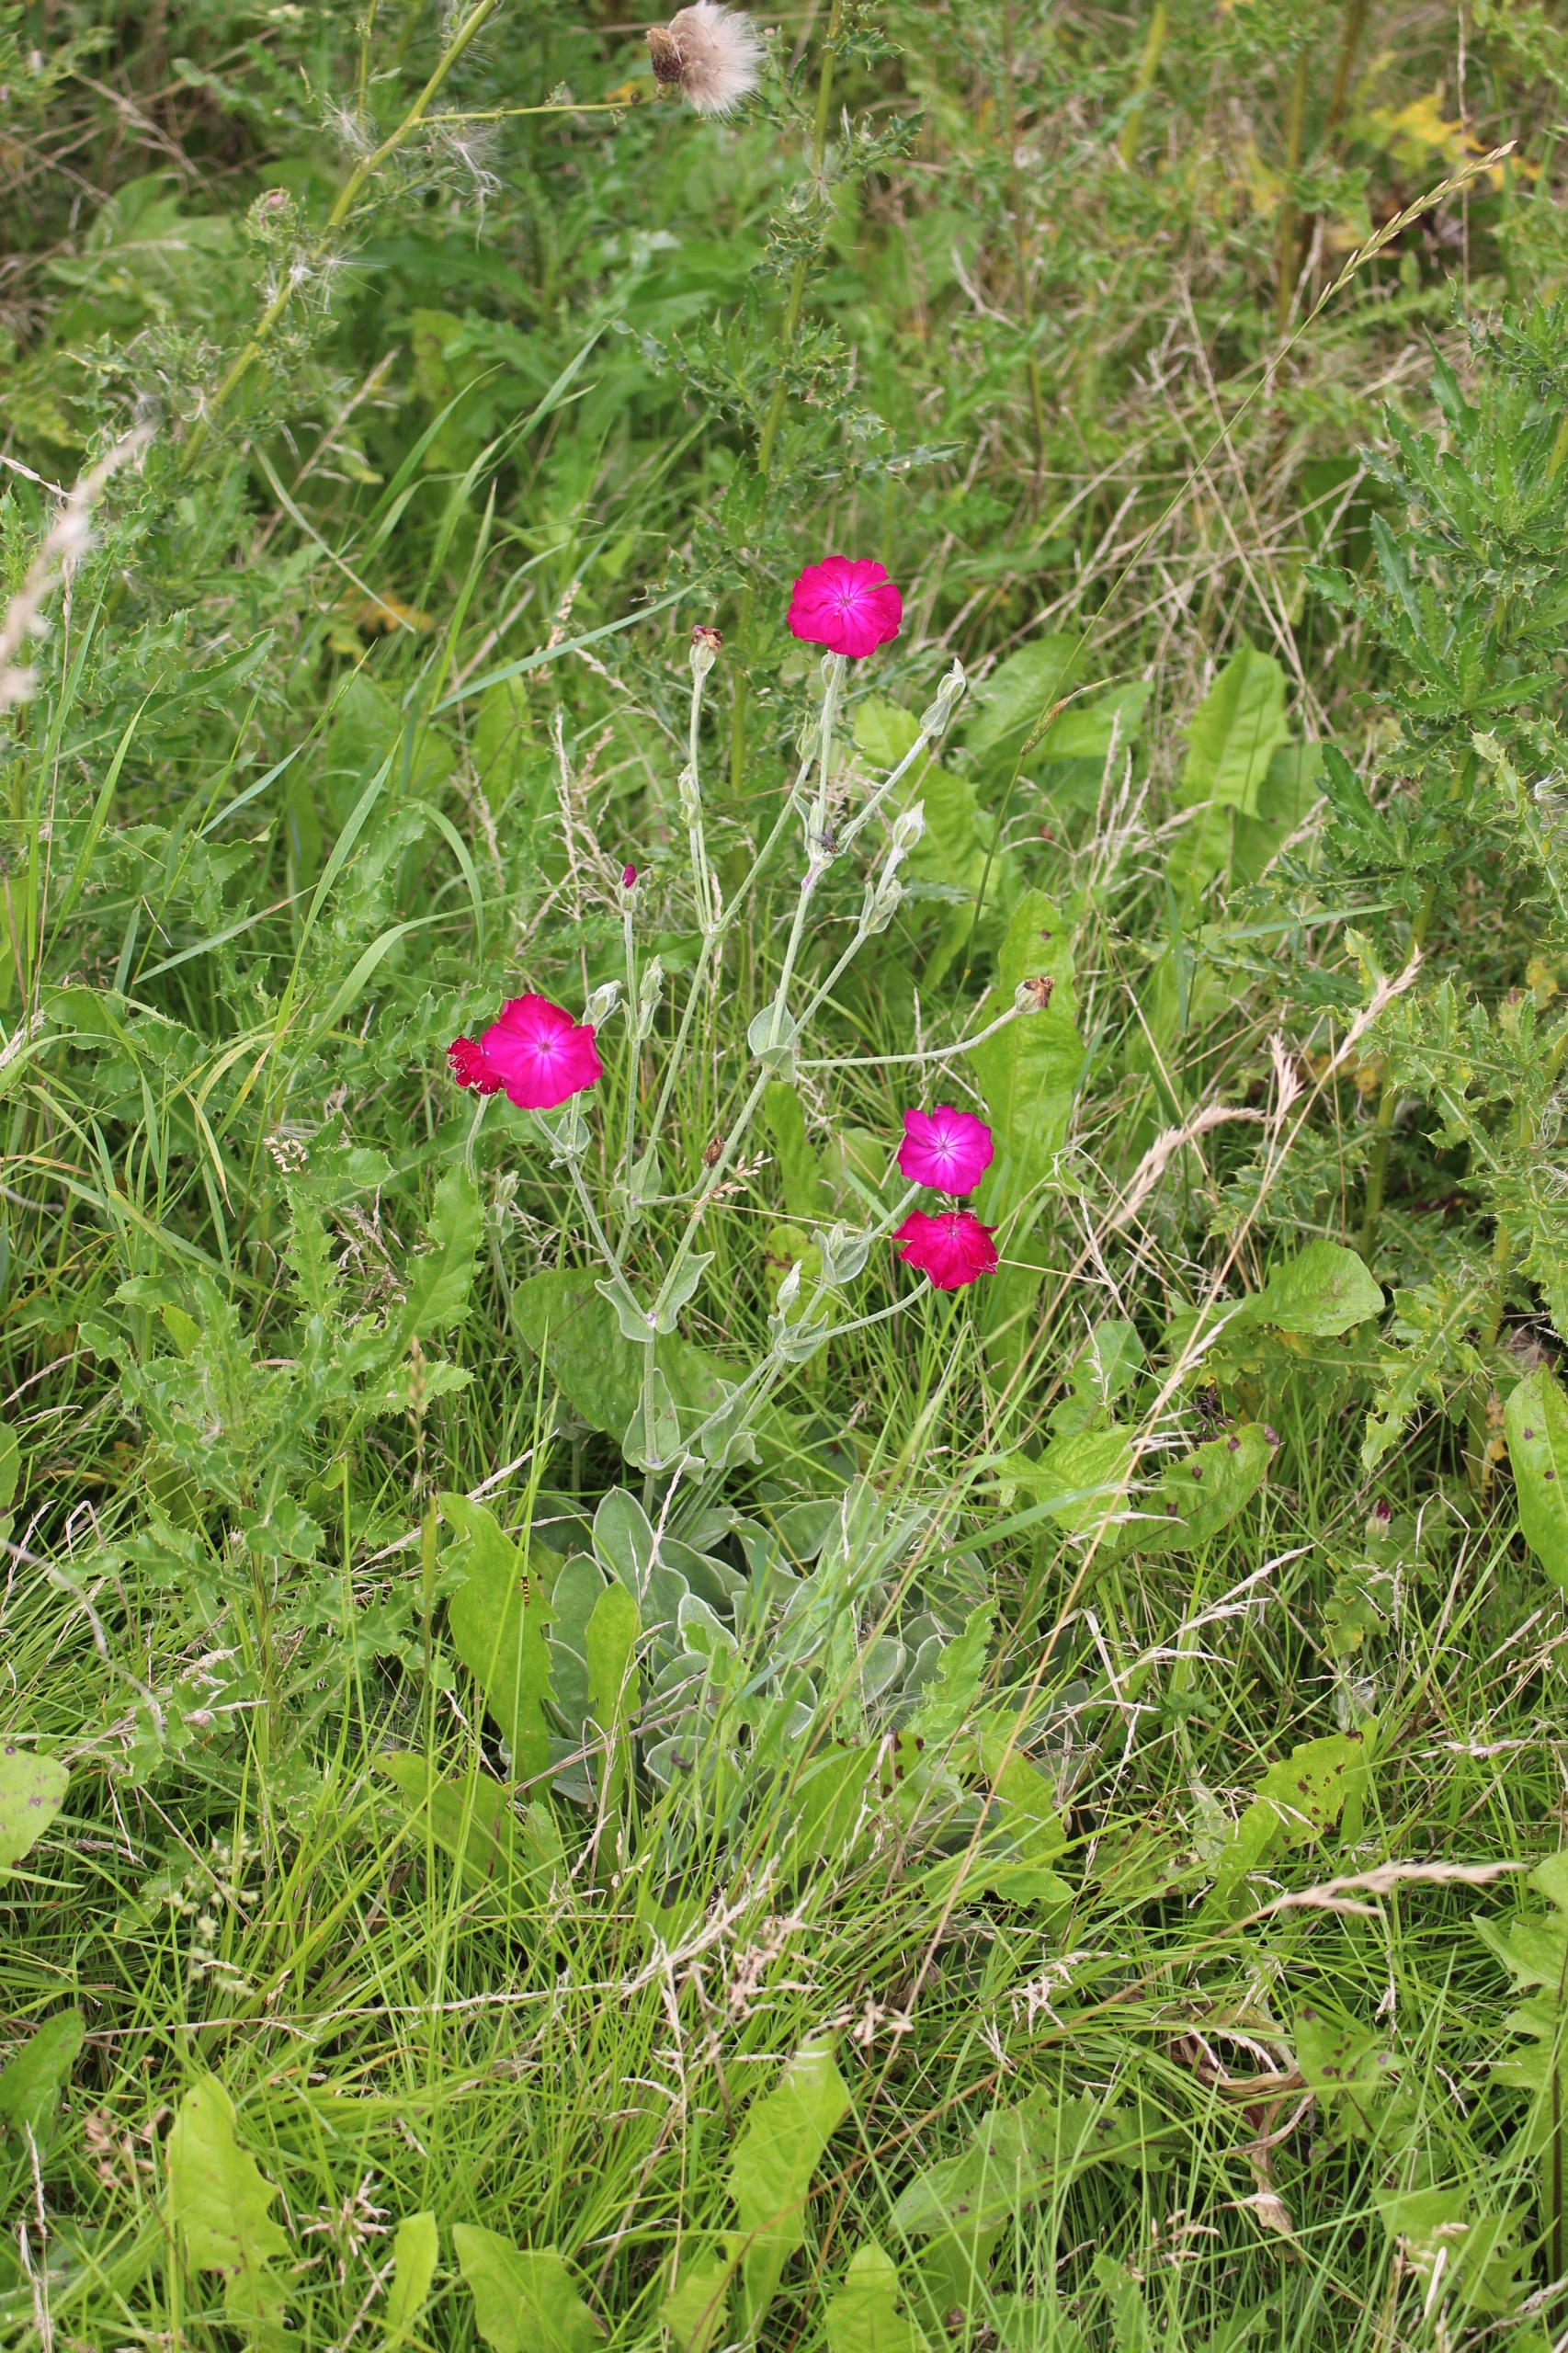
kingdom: Plantae
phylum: Tracheophyta
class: Magnoliopsida
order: Caryophyllales
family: Caryophyllaceae
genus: Silene
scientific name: Silene coronaria
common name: Fiksernellike
